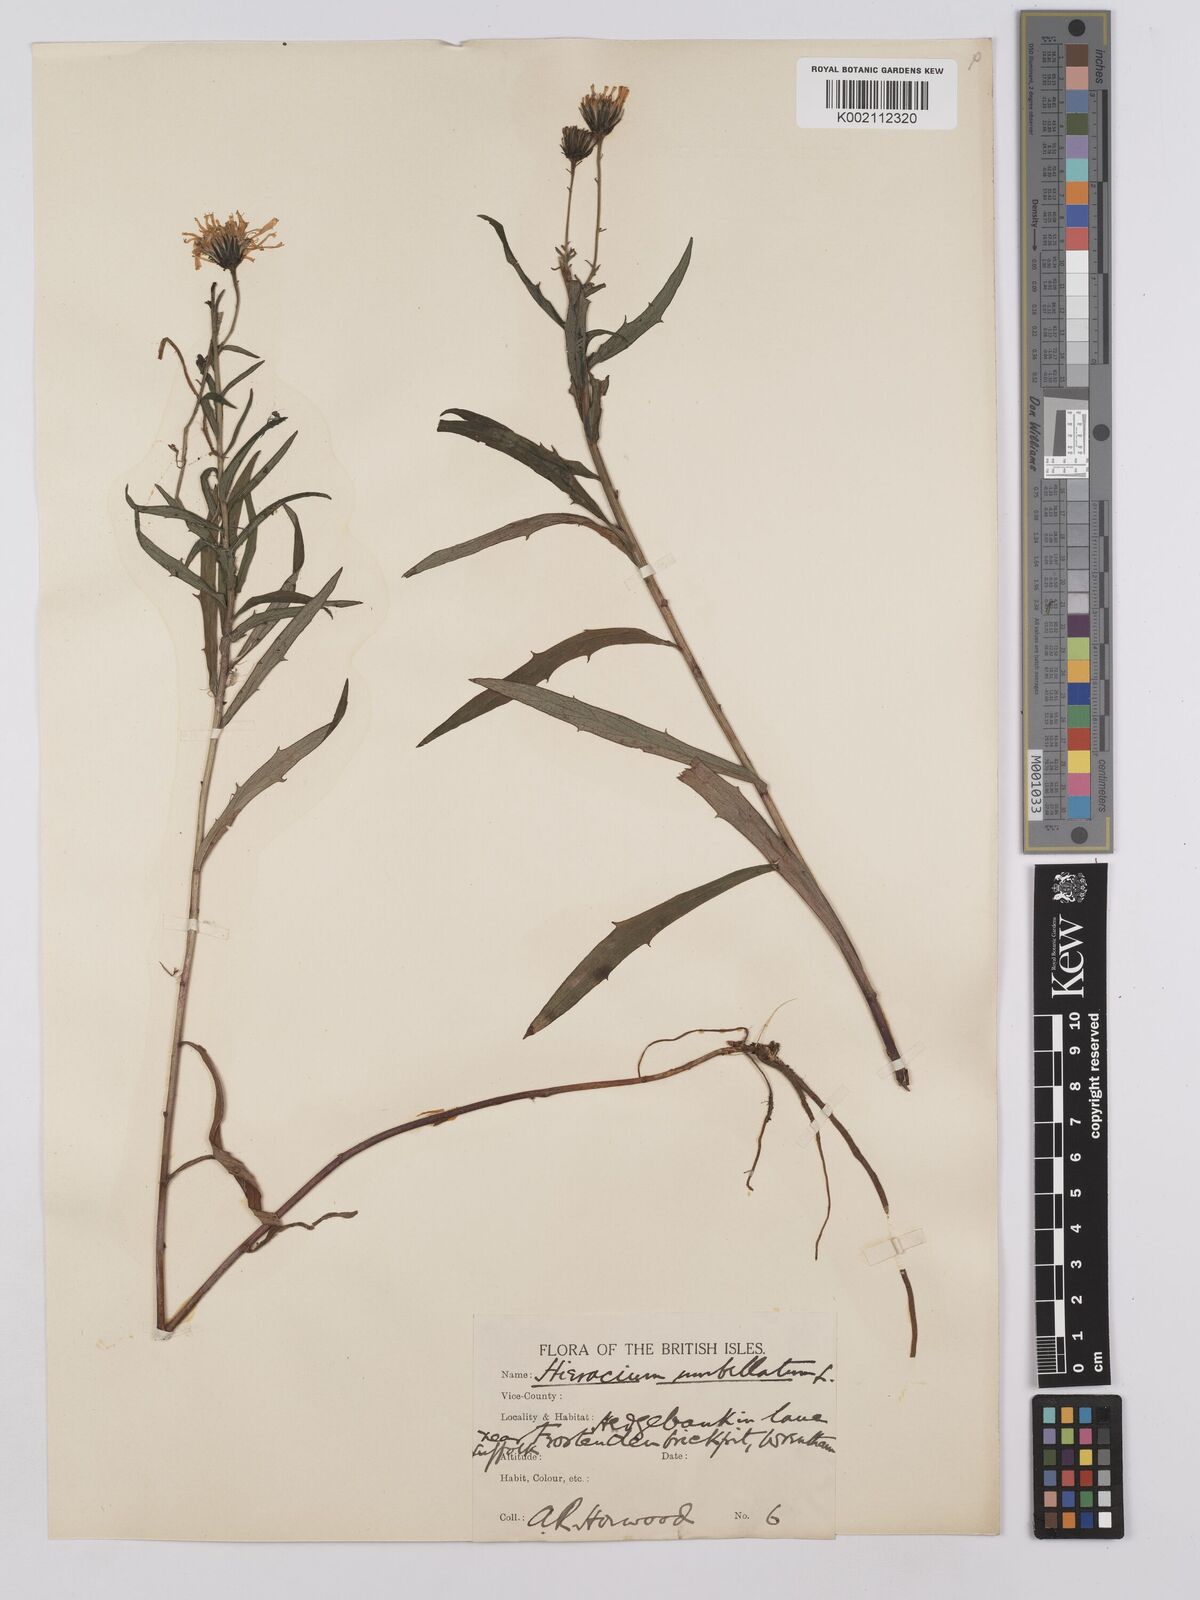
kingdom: Plantae
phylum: Tracheophyta
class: Magnoliopsida
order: Asterales
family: Asteraceae
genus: Hieracium
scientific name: Hieracium umbellatum
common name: Northern hawkweed
